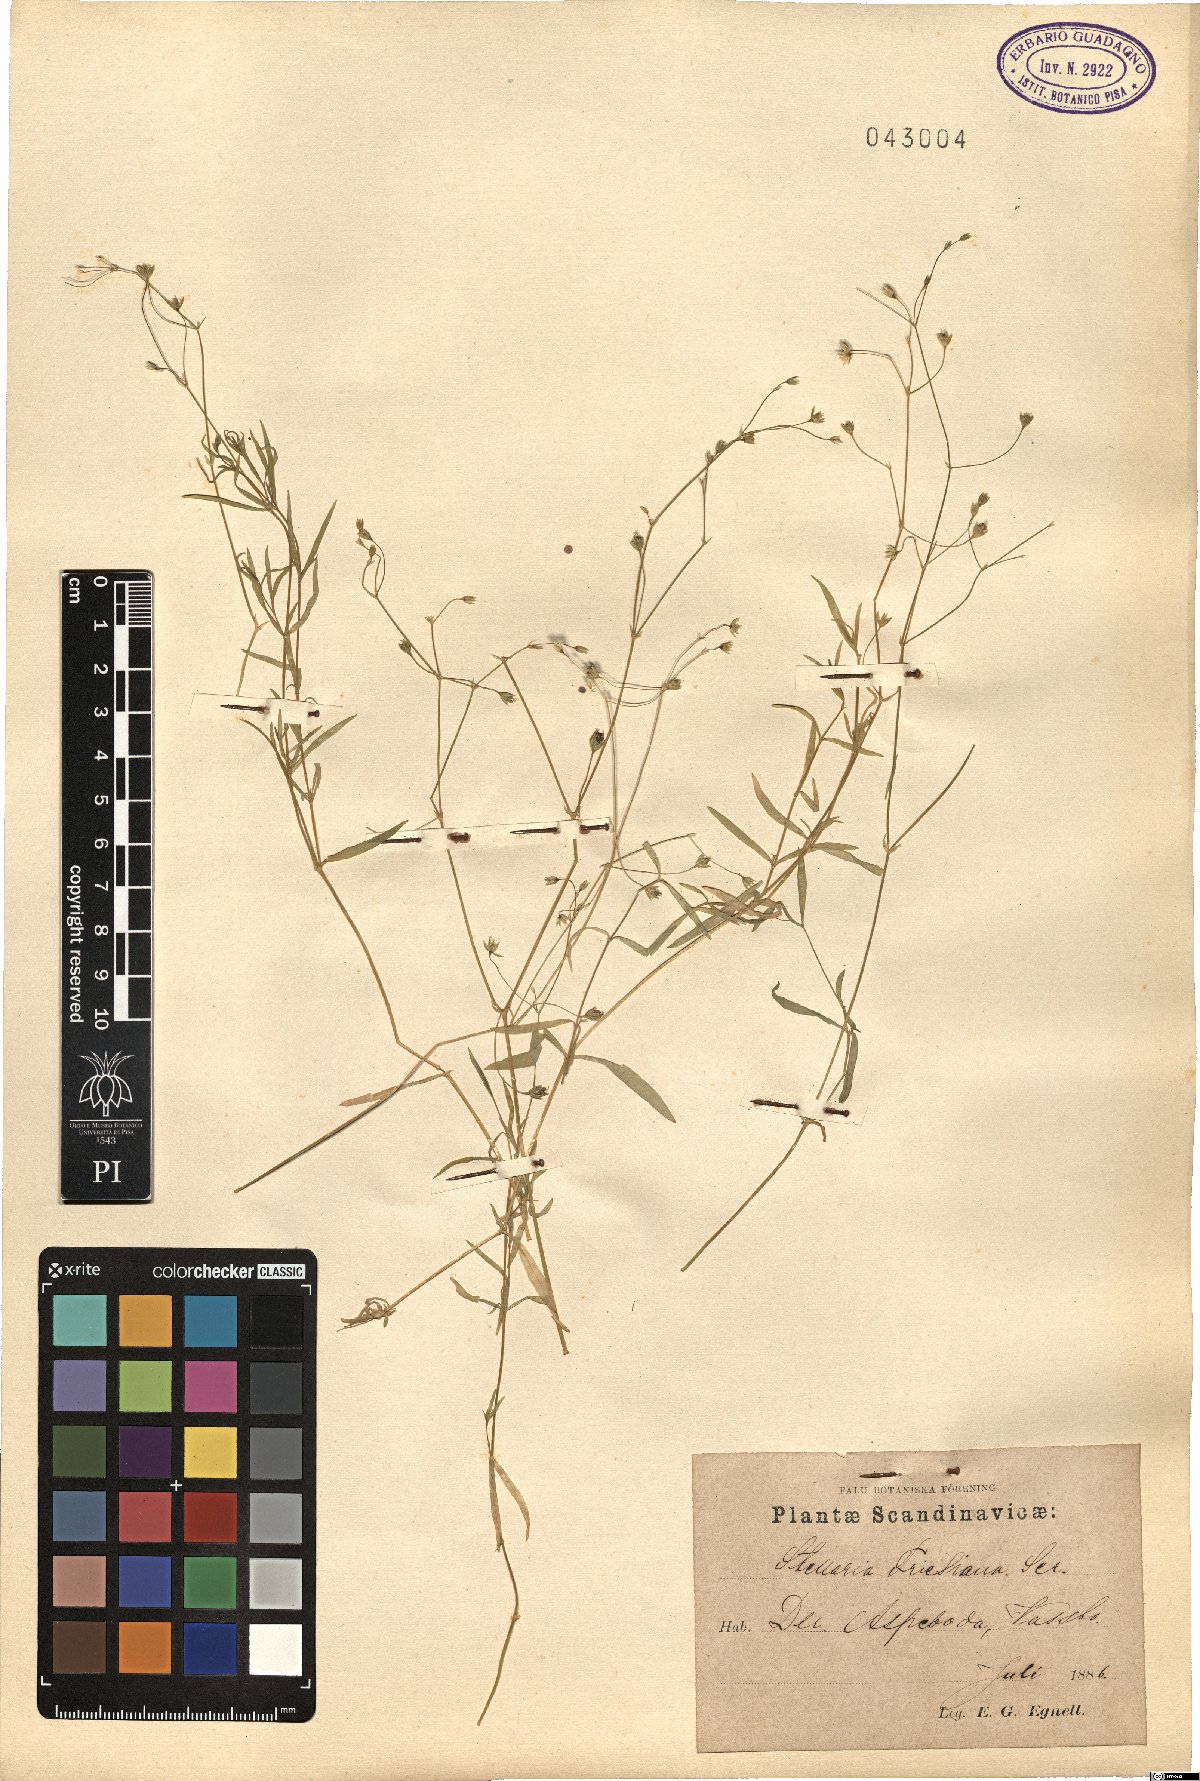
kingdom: Plantae
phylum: Tracheophyta
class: Magnoliopsida
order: Caryophyllales
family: Caryophyllaceae
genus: Stellaria
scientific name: Stellaria longifolia
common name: Long-leaved chickweed
